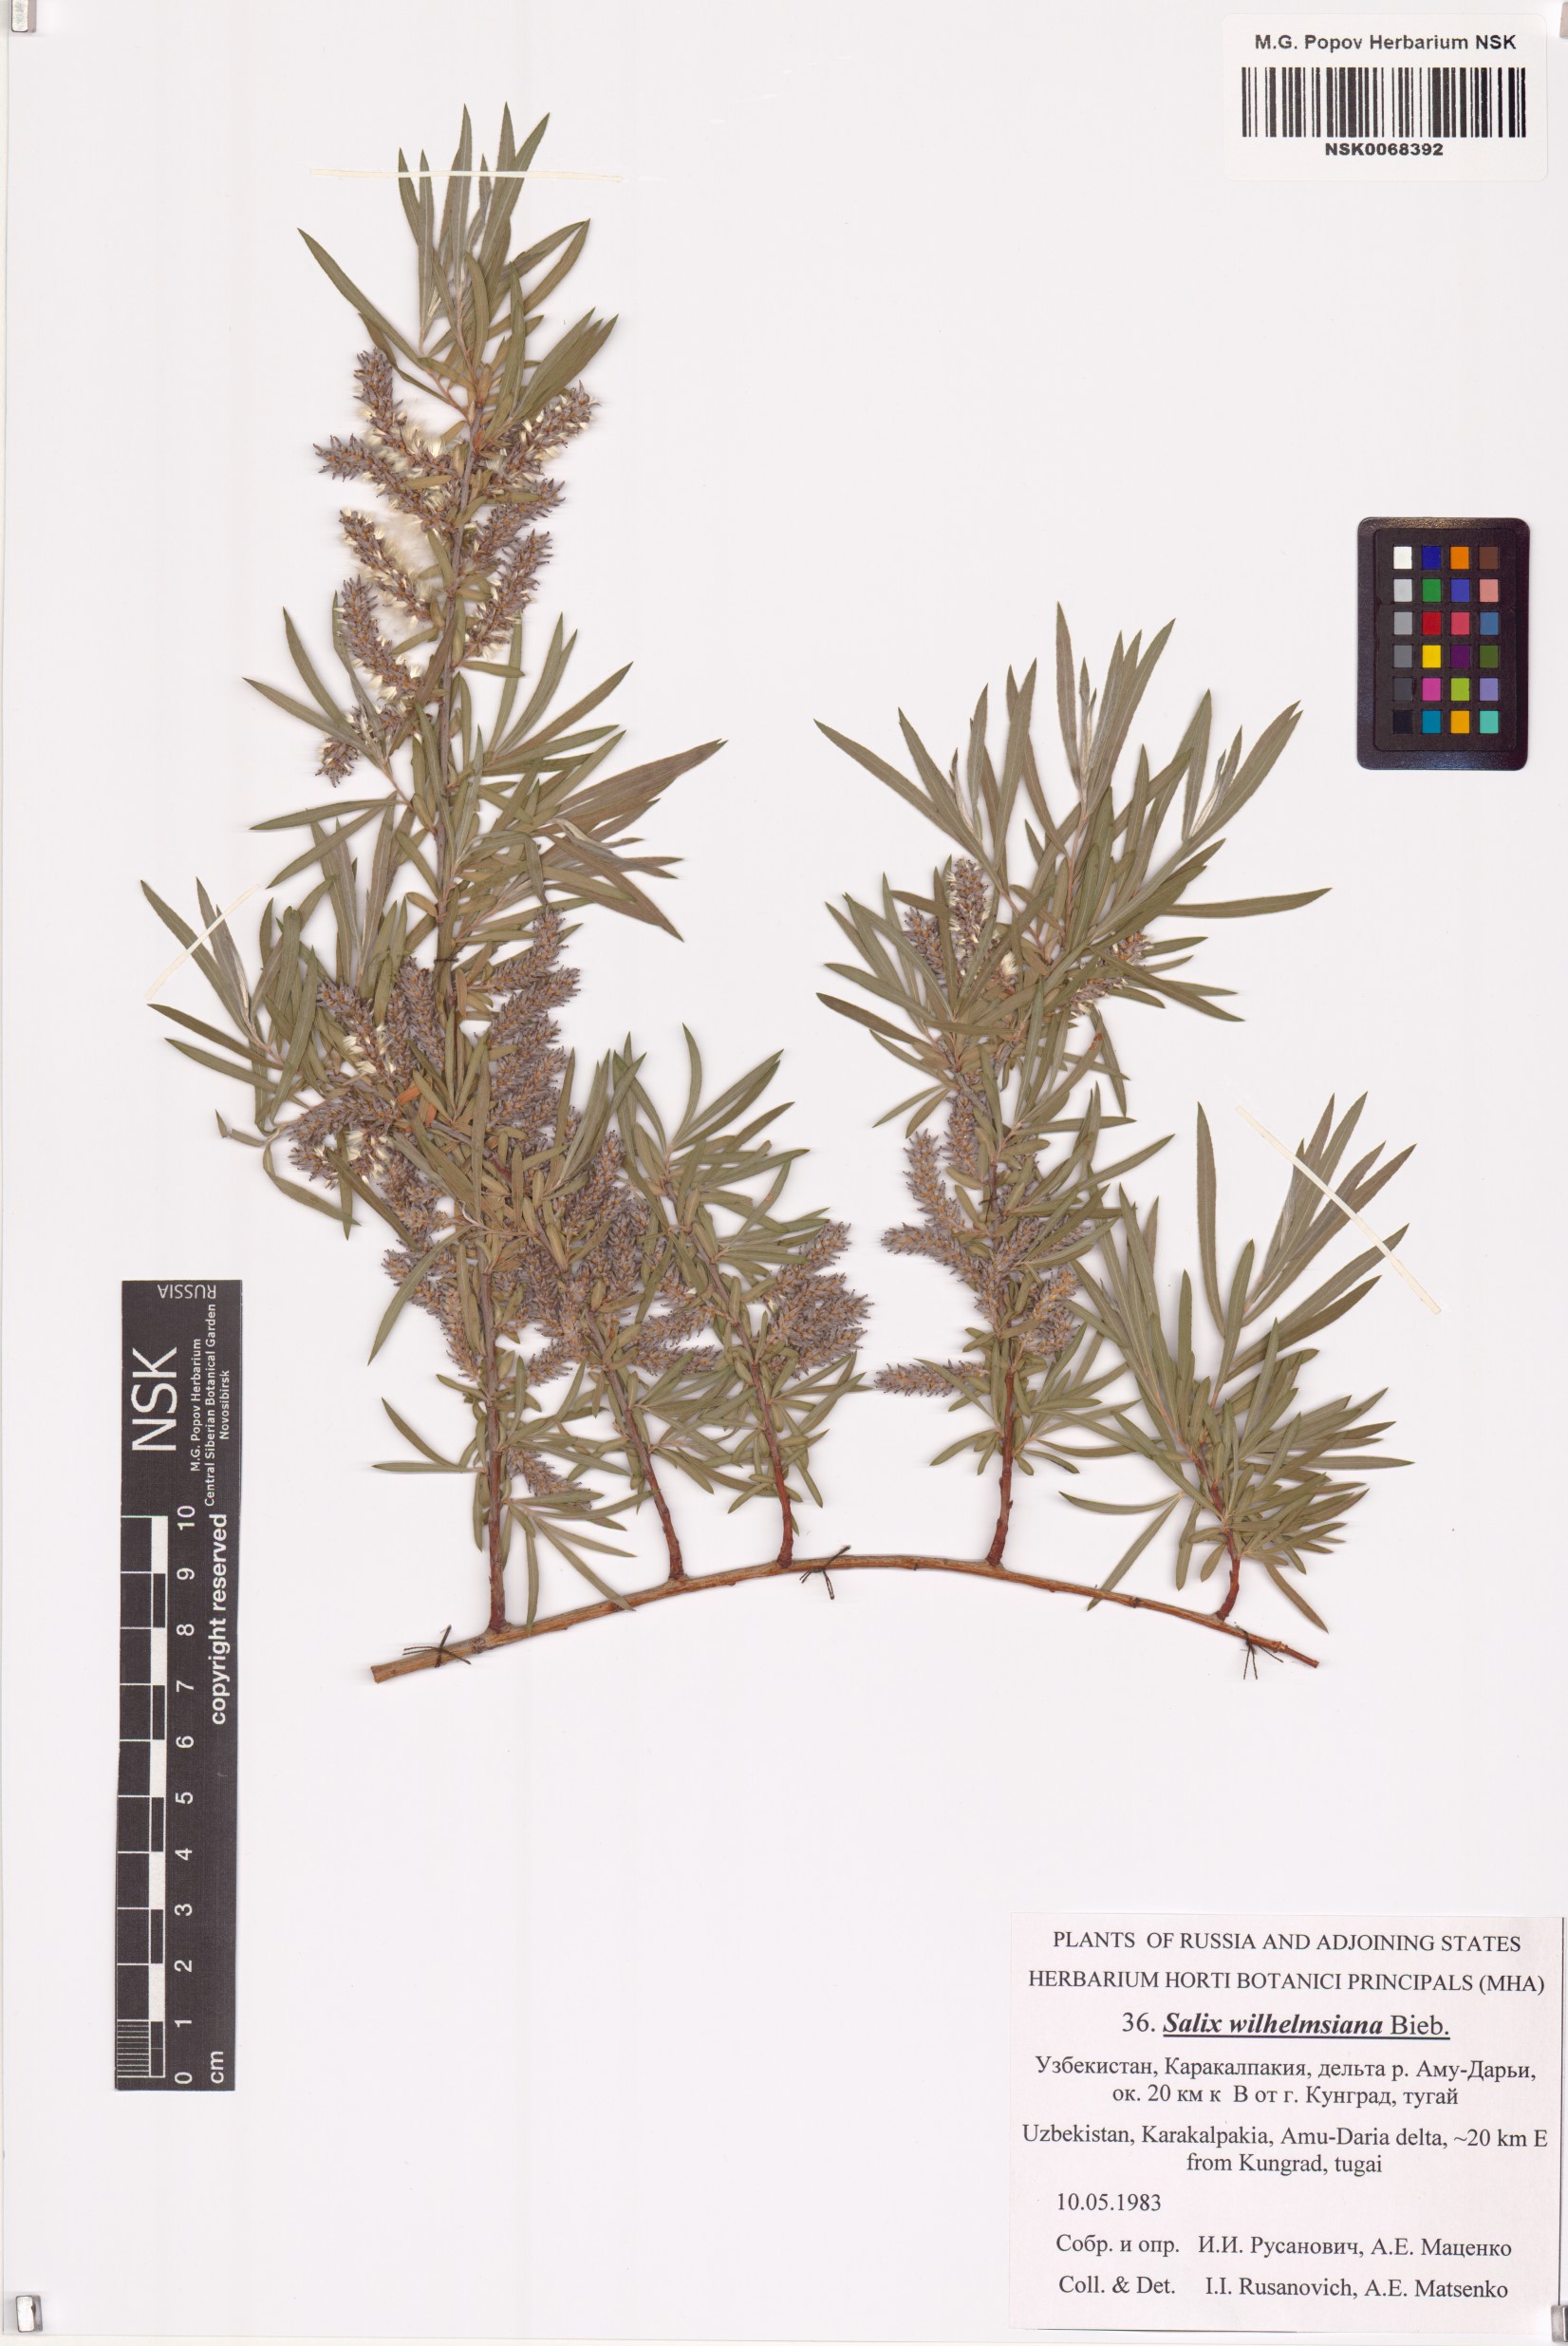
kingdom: Plantae
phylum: Tracheophyta
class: Magnoliopsida
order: Malpighiales
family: Salicaceae
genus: Salix
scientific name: Salix wilhelmsiana
